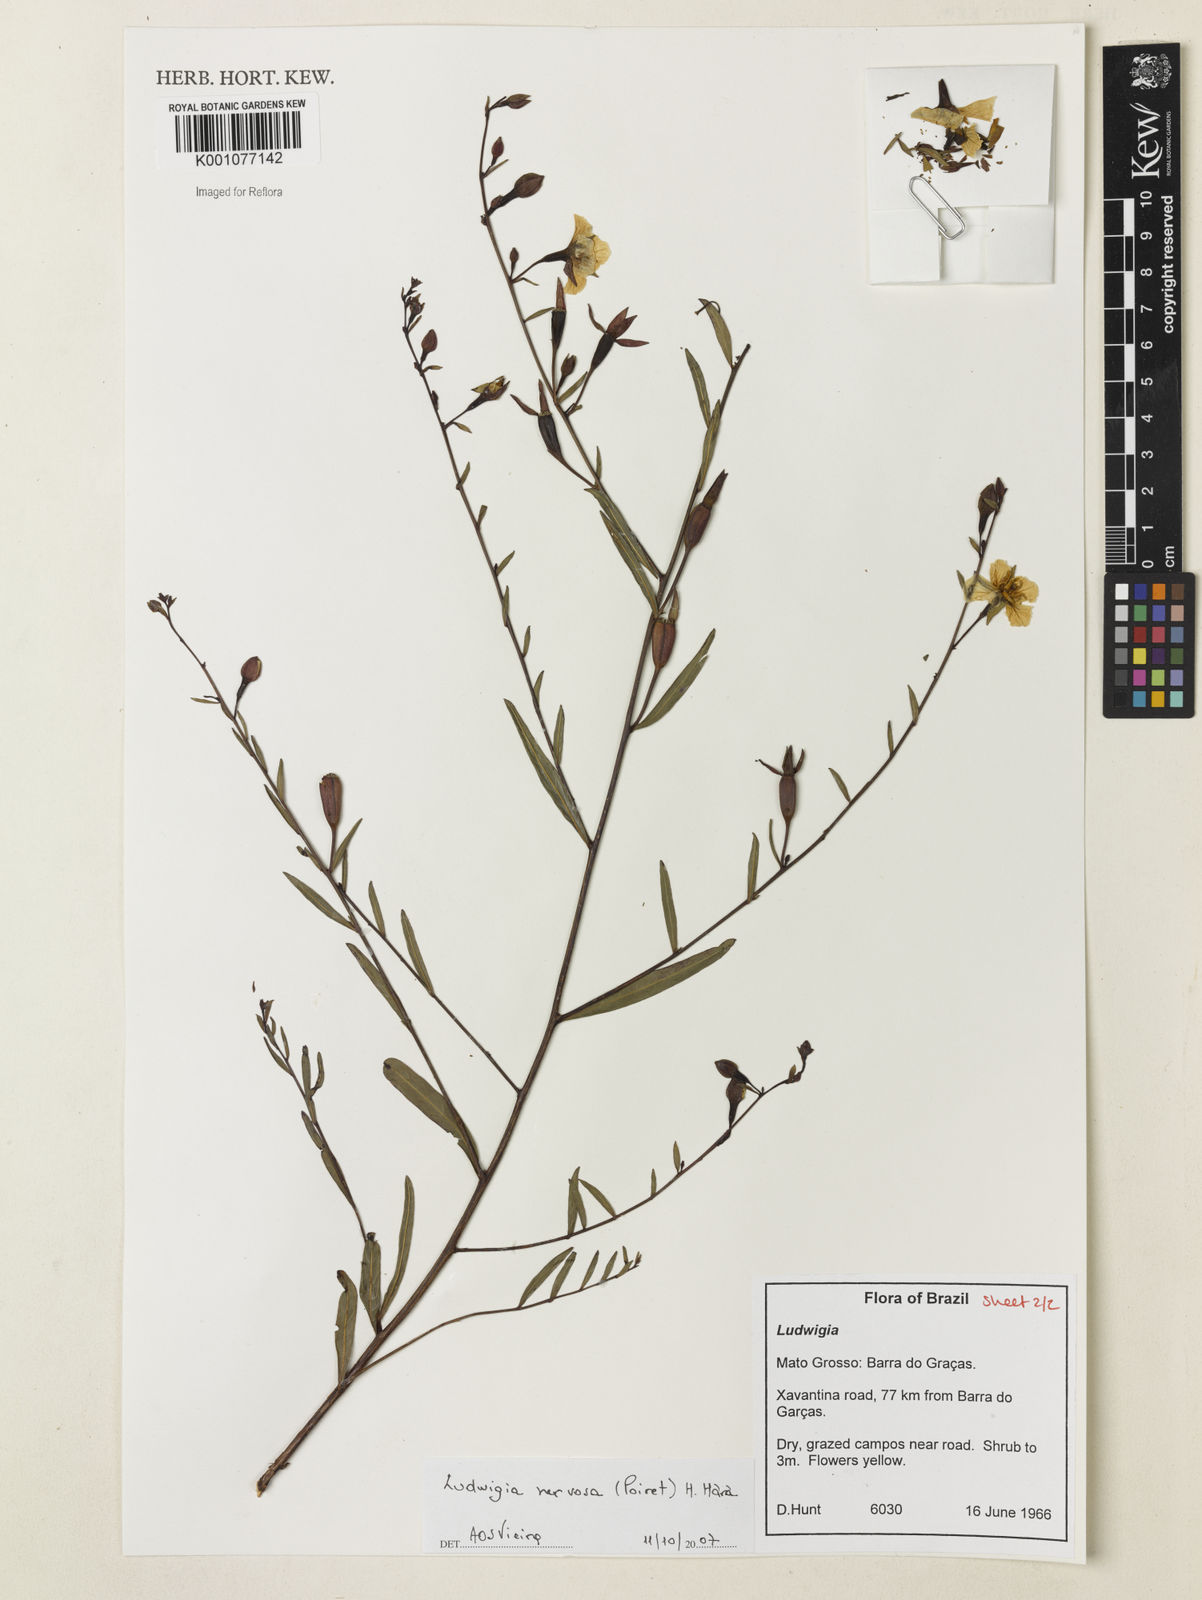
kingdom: Plantae
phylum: Tracheophyta
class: Magnoliopsida
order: Myrtales
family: Onagraceae
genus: Ludwigia
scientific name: Ludwigia nervosa
